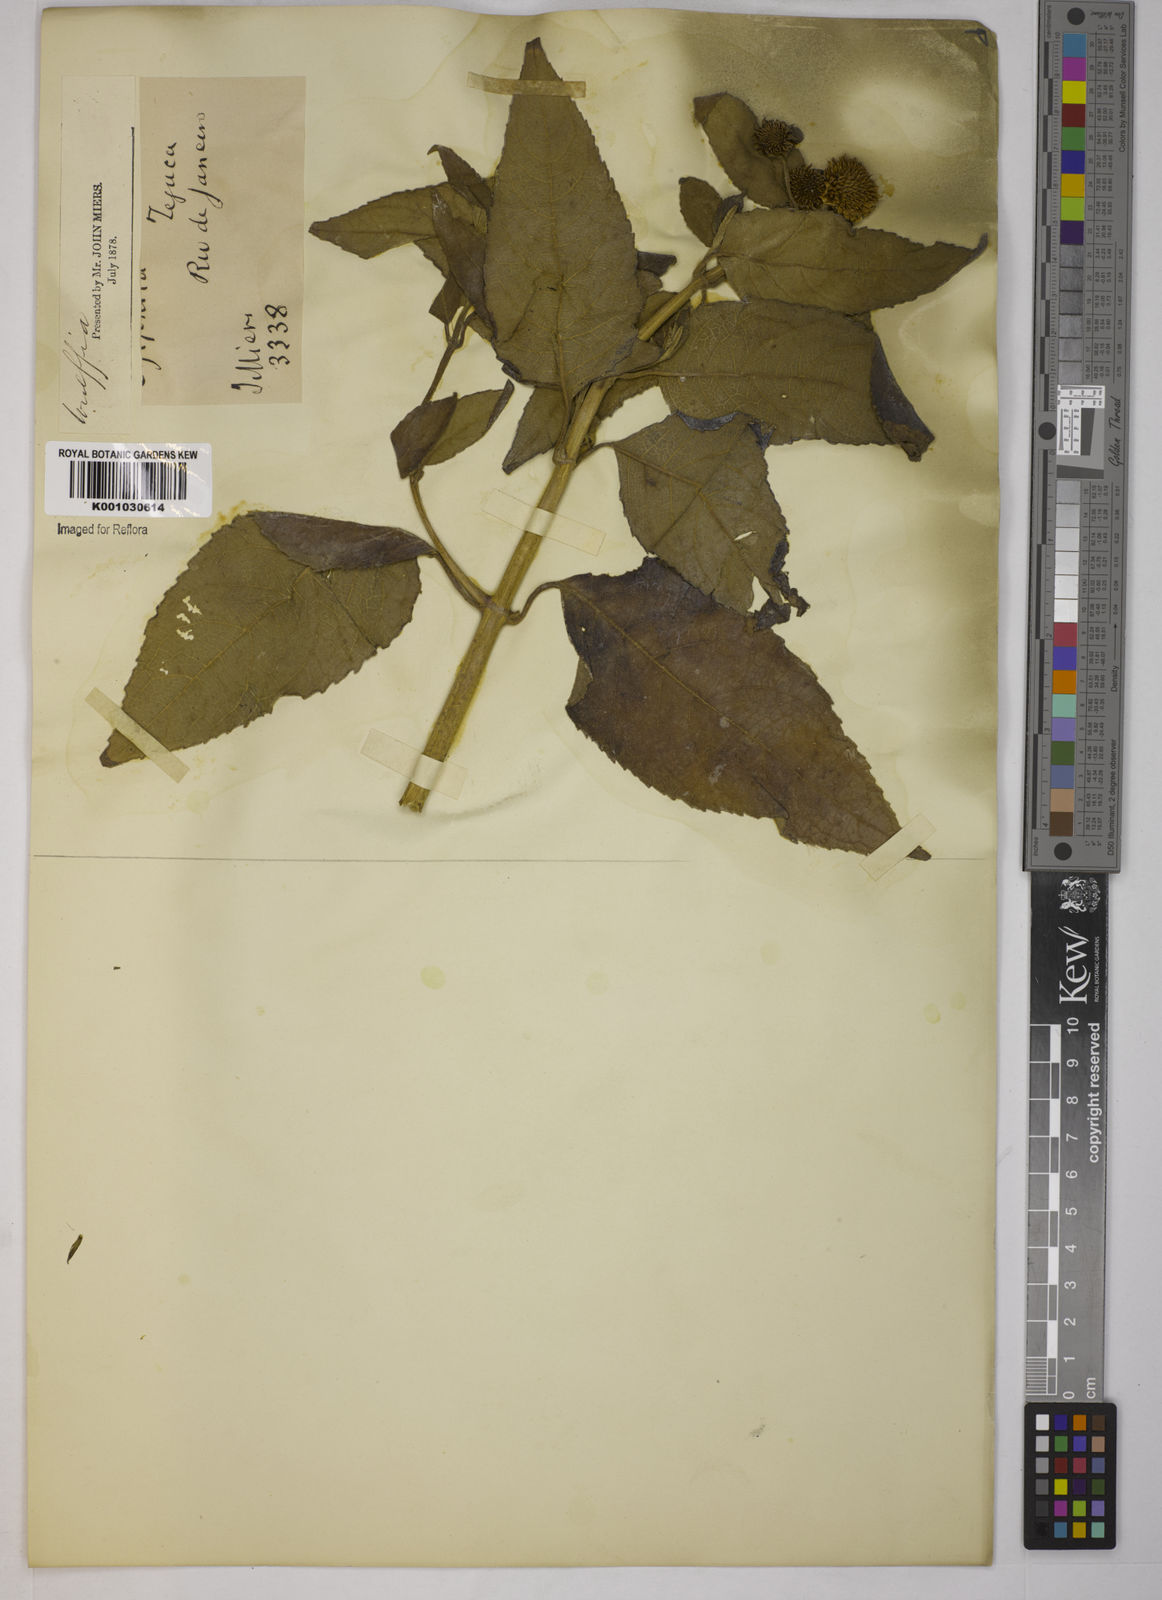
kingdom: Plantae
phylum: Tracheophyta
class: Magnoliopsida
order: Asterales
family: Asteraceae
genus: Tilesia
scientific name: Tilesia baccata
